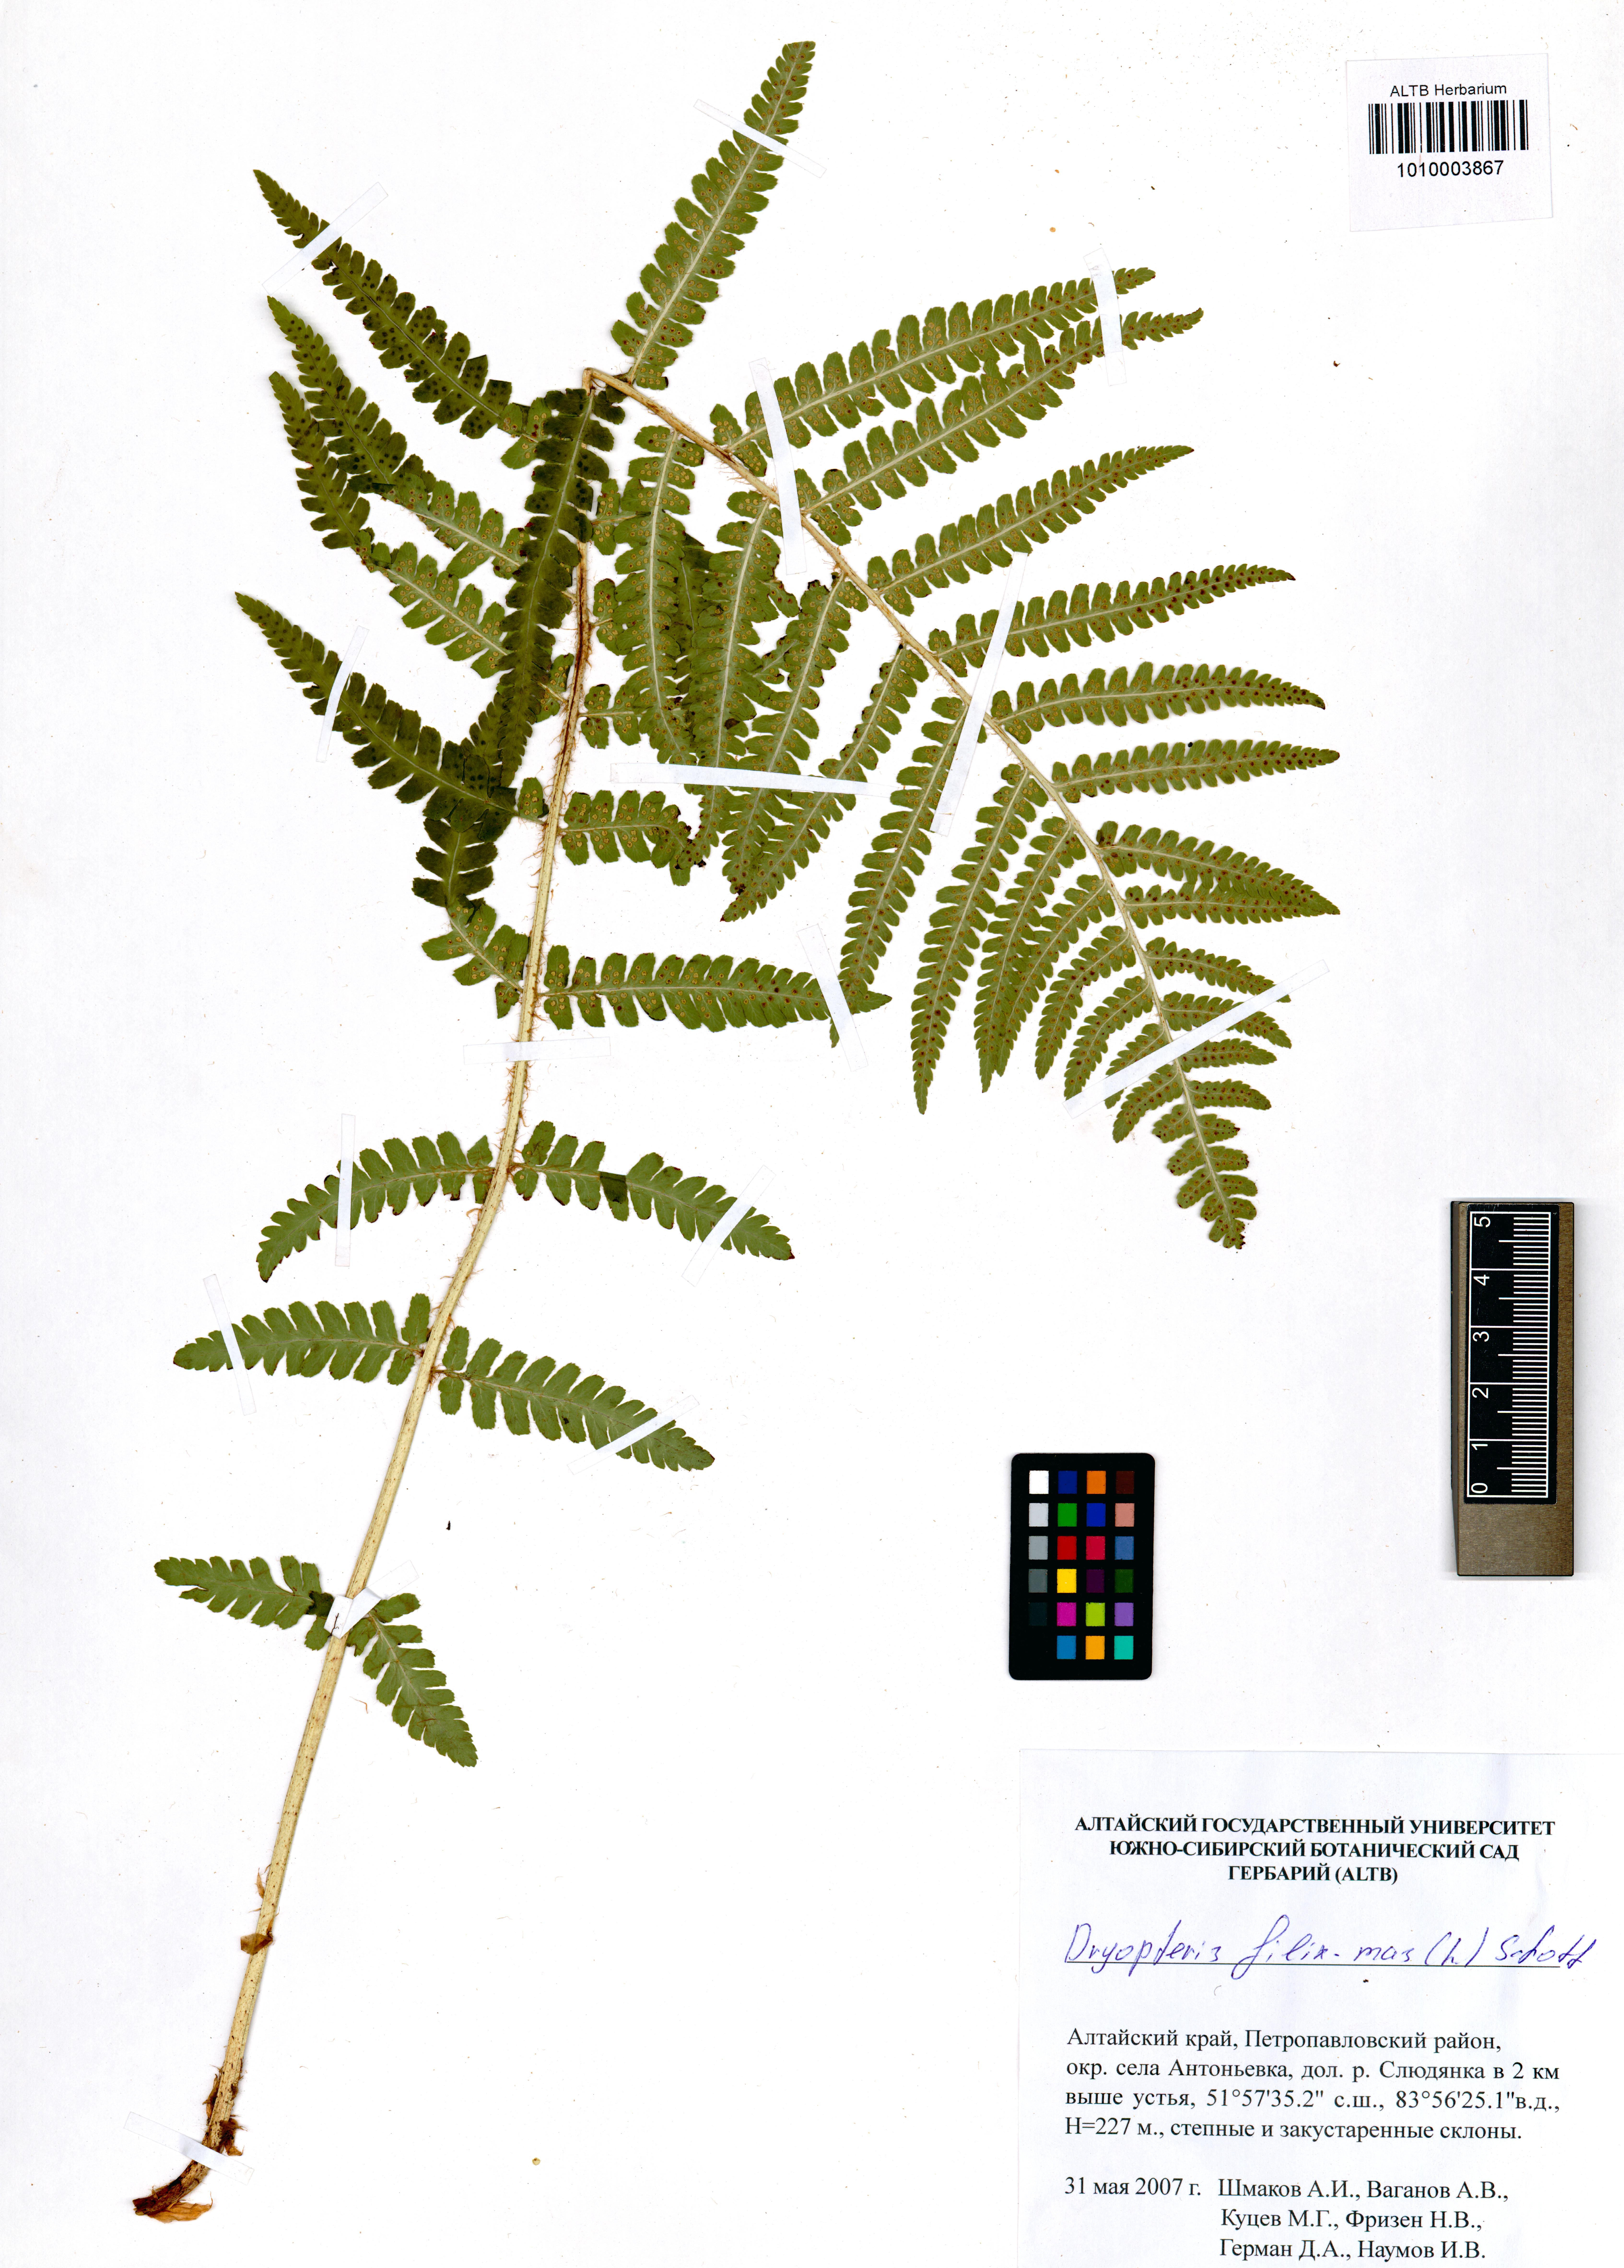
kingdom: Plantae
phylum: Tracheophyta
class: Polypodiopsida
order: Polypodiales
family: Dryopteridaceae
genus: Dryopteris
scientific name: Dryopteris filix-mas
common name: Male fern
